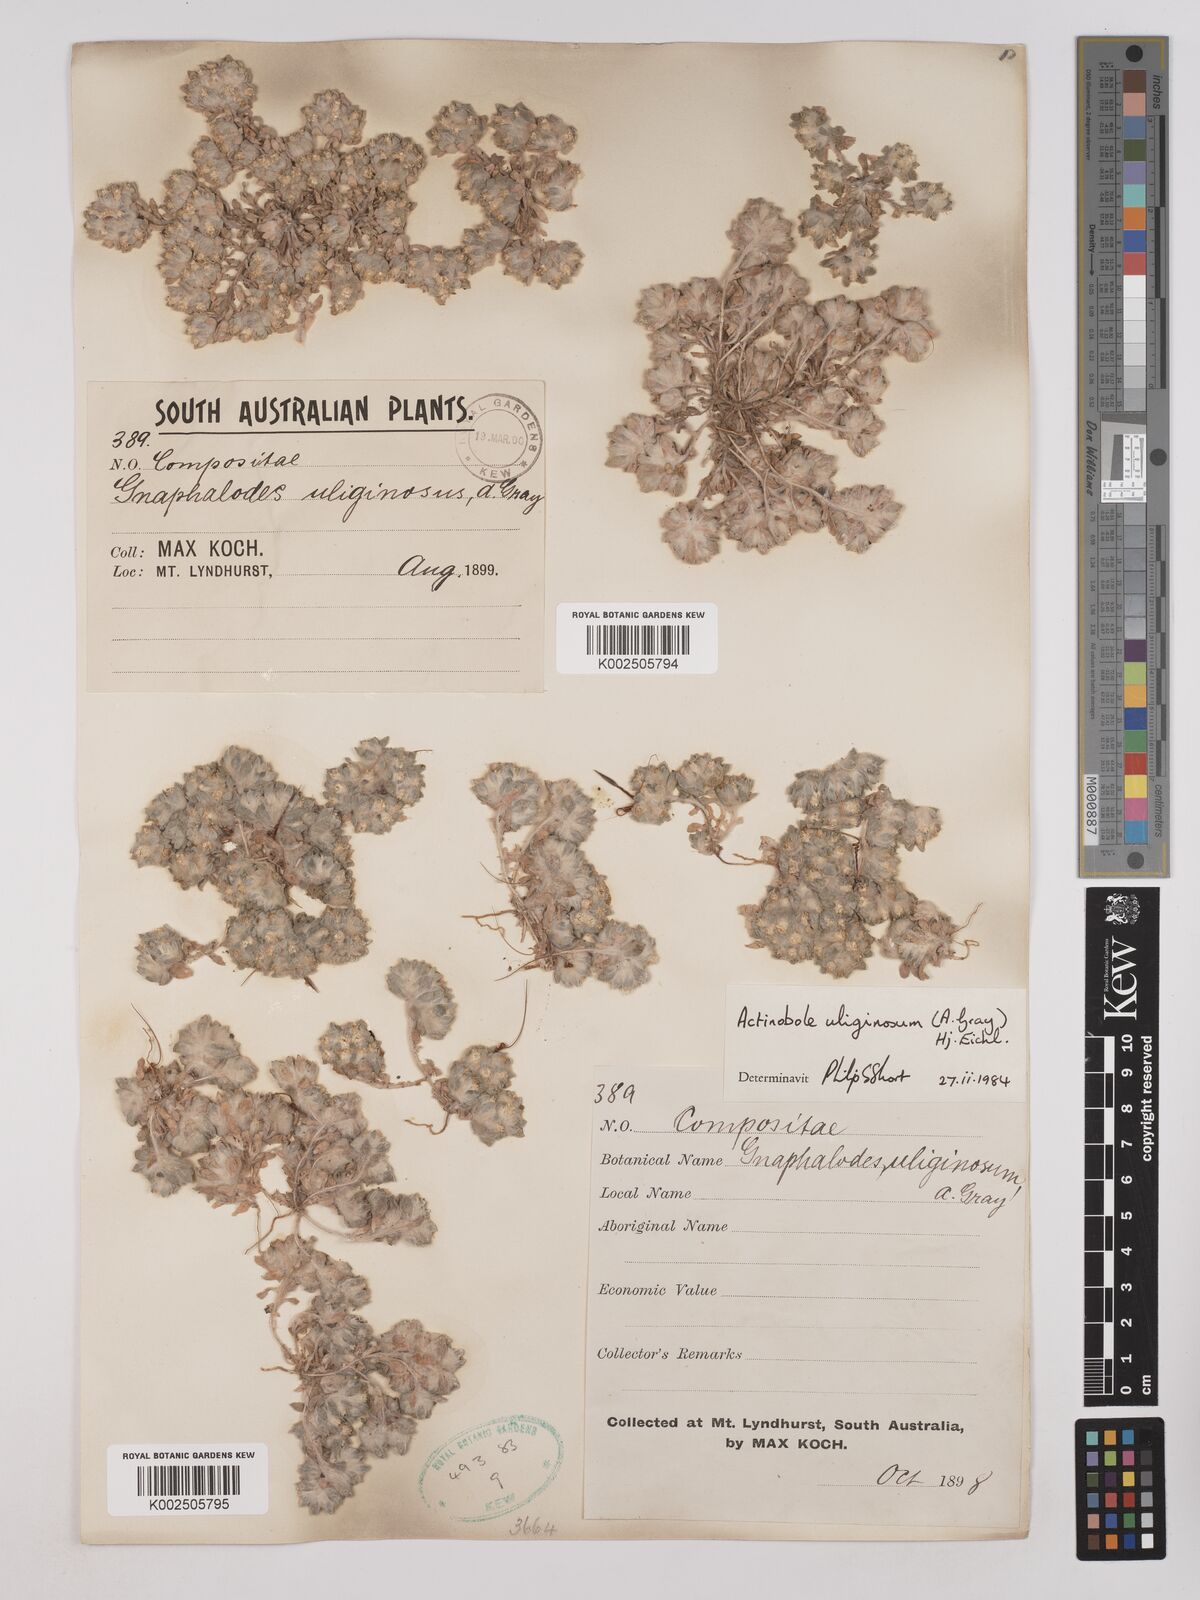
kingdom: Plantae
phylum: Tracheophyta
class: Magnoliopsida
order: Asterales
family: Asteraceae
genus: Actinobole
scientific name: Actinobole uliginosum
